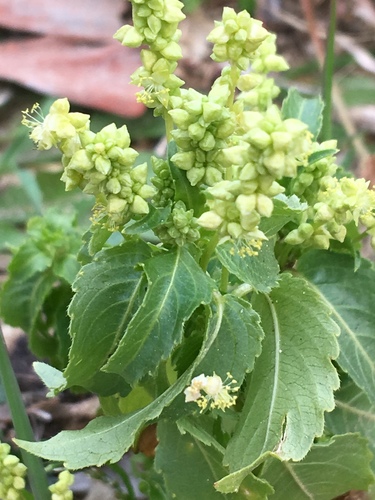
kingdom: Plantae
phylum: Tracheophyta
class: Magnoliopsida
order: Malpighiales
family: Euphorbiaceae
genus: Mercurialis
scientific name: Mercurialis annua
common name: Annual mercury
